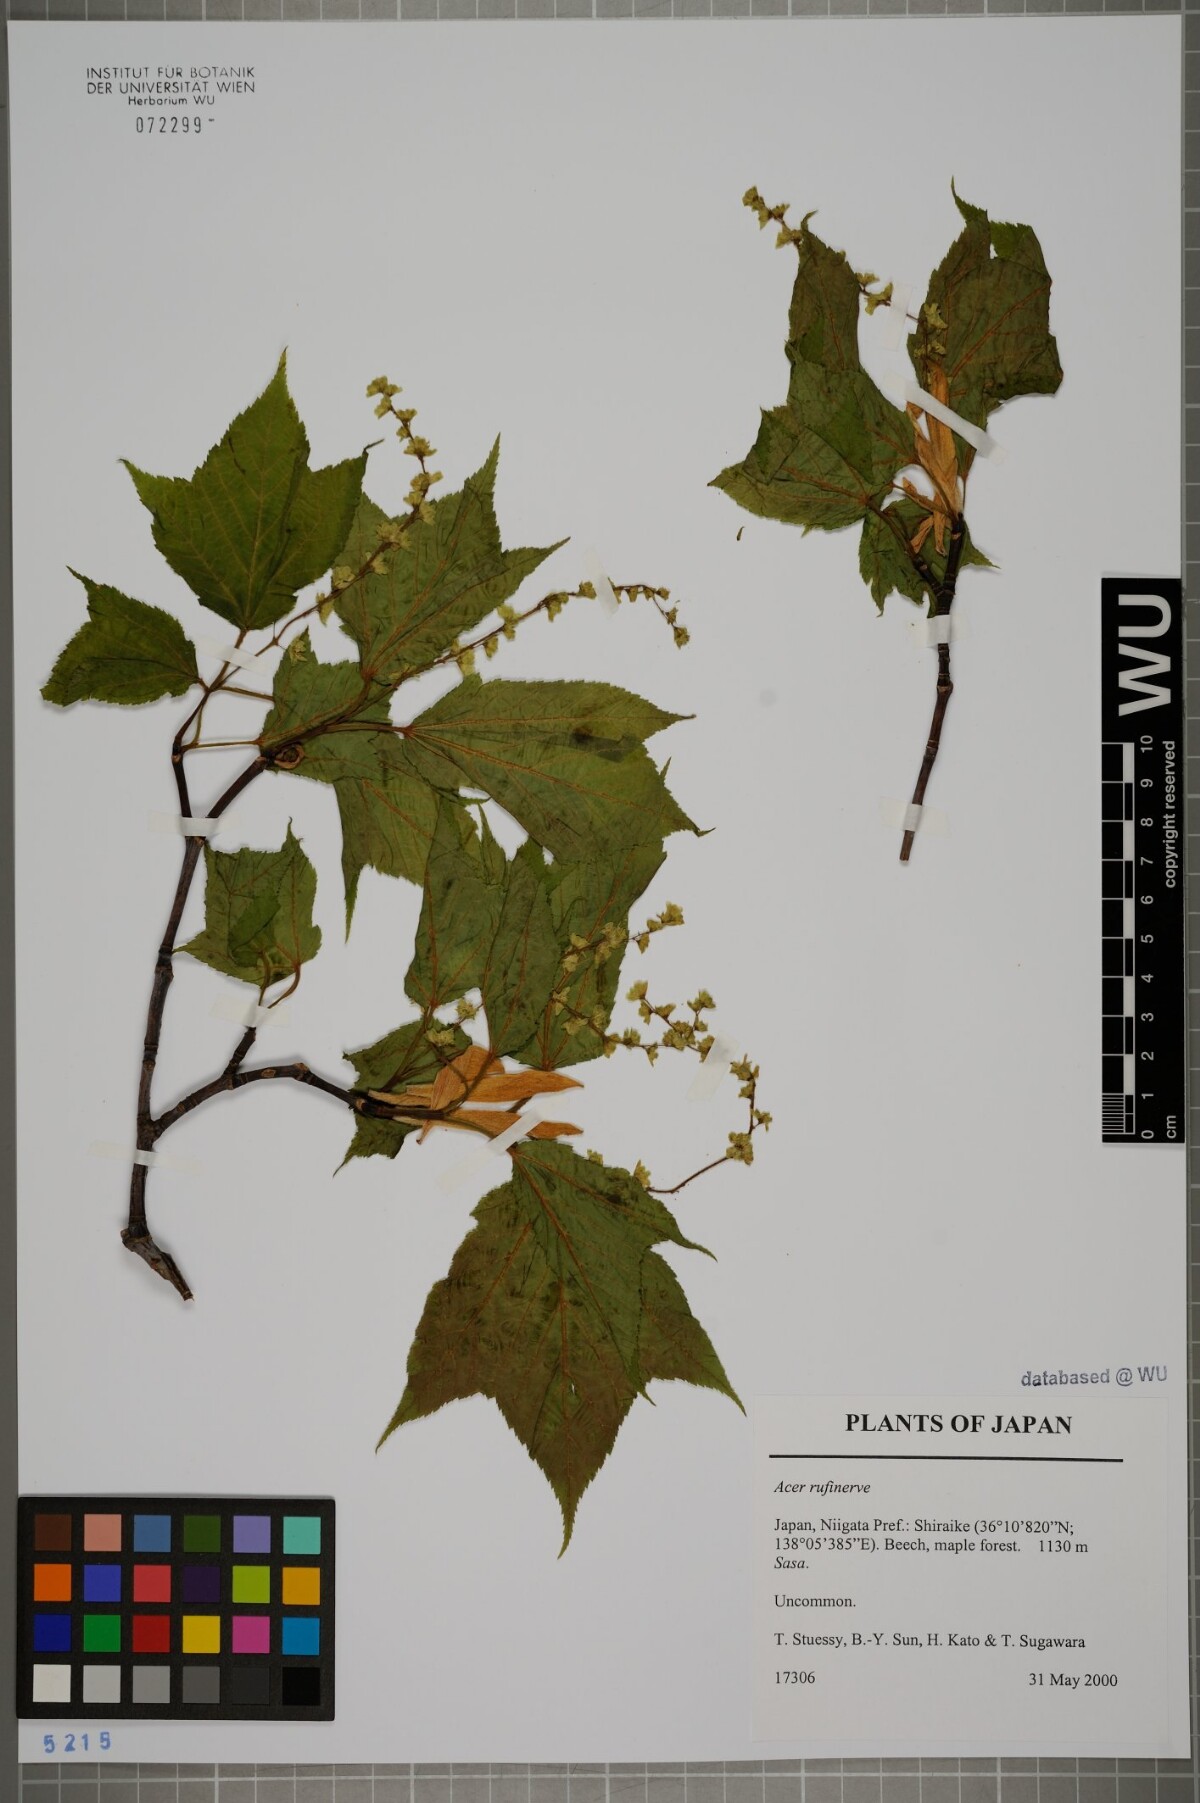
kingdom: Plantae
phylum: Tracheophyta
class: Magnoliopsida
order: Sapindales
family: Sapindaceae
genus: Acer
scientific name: Acer rufinerve
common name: Red veined maple
